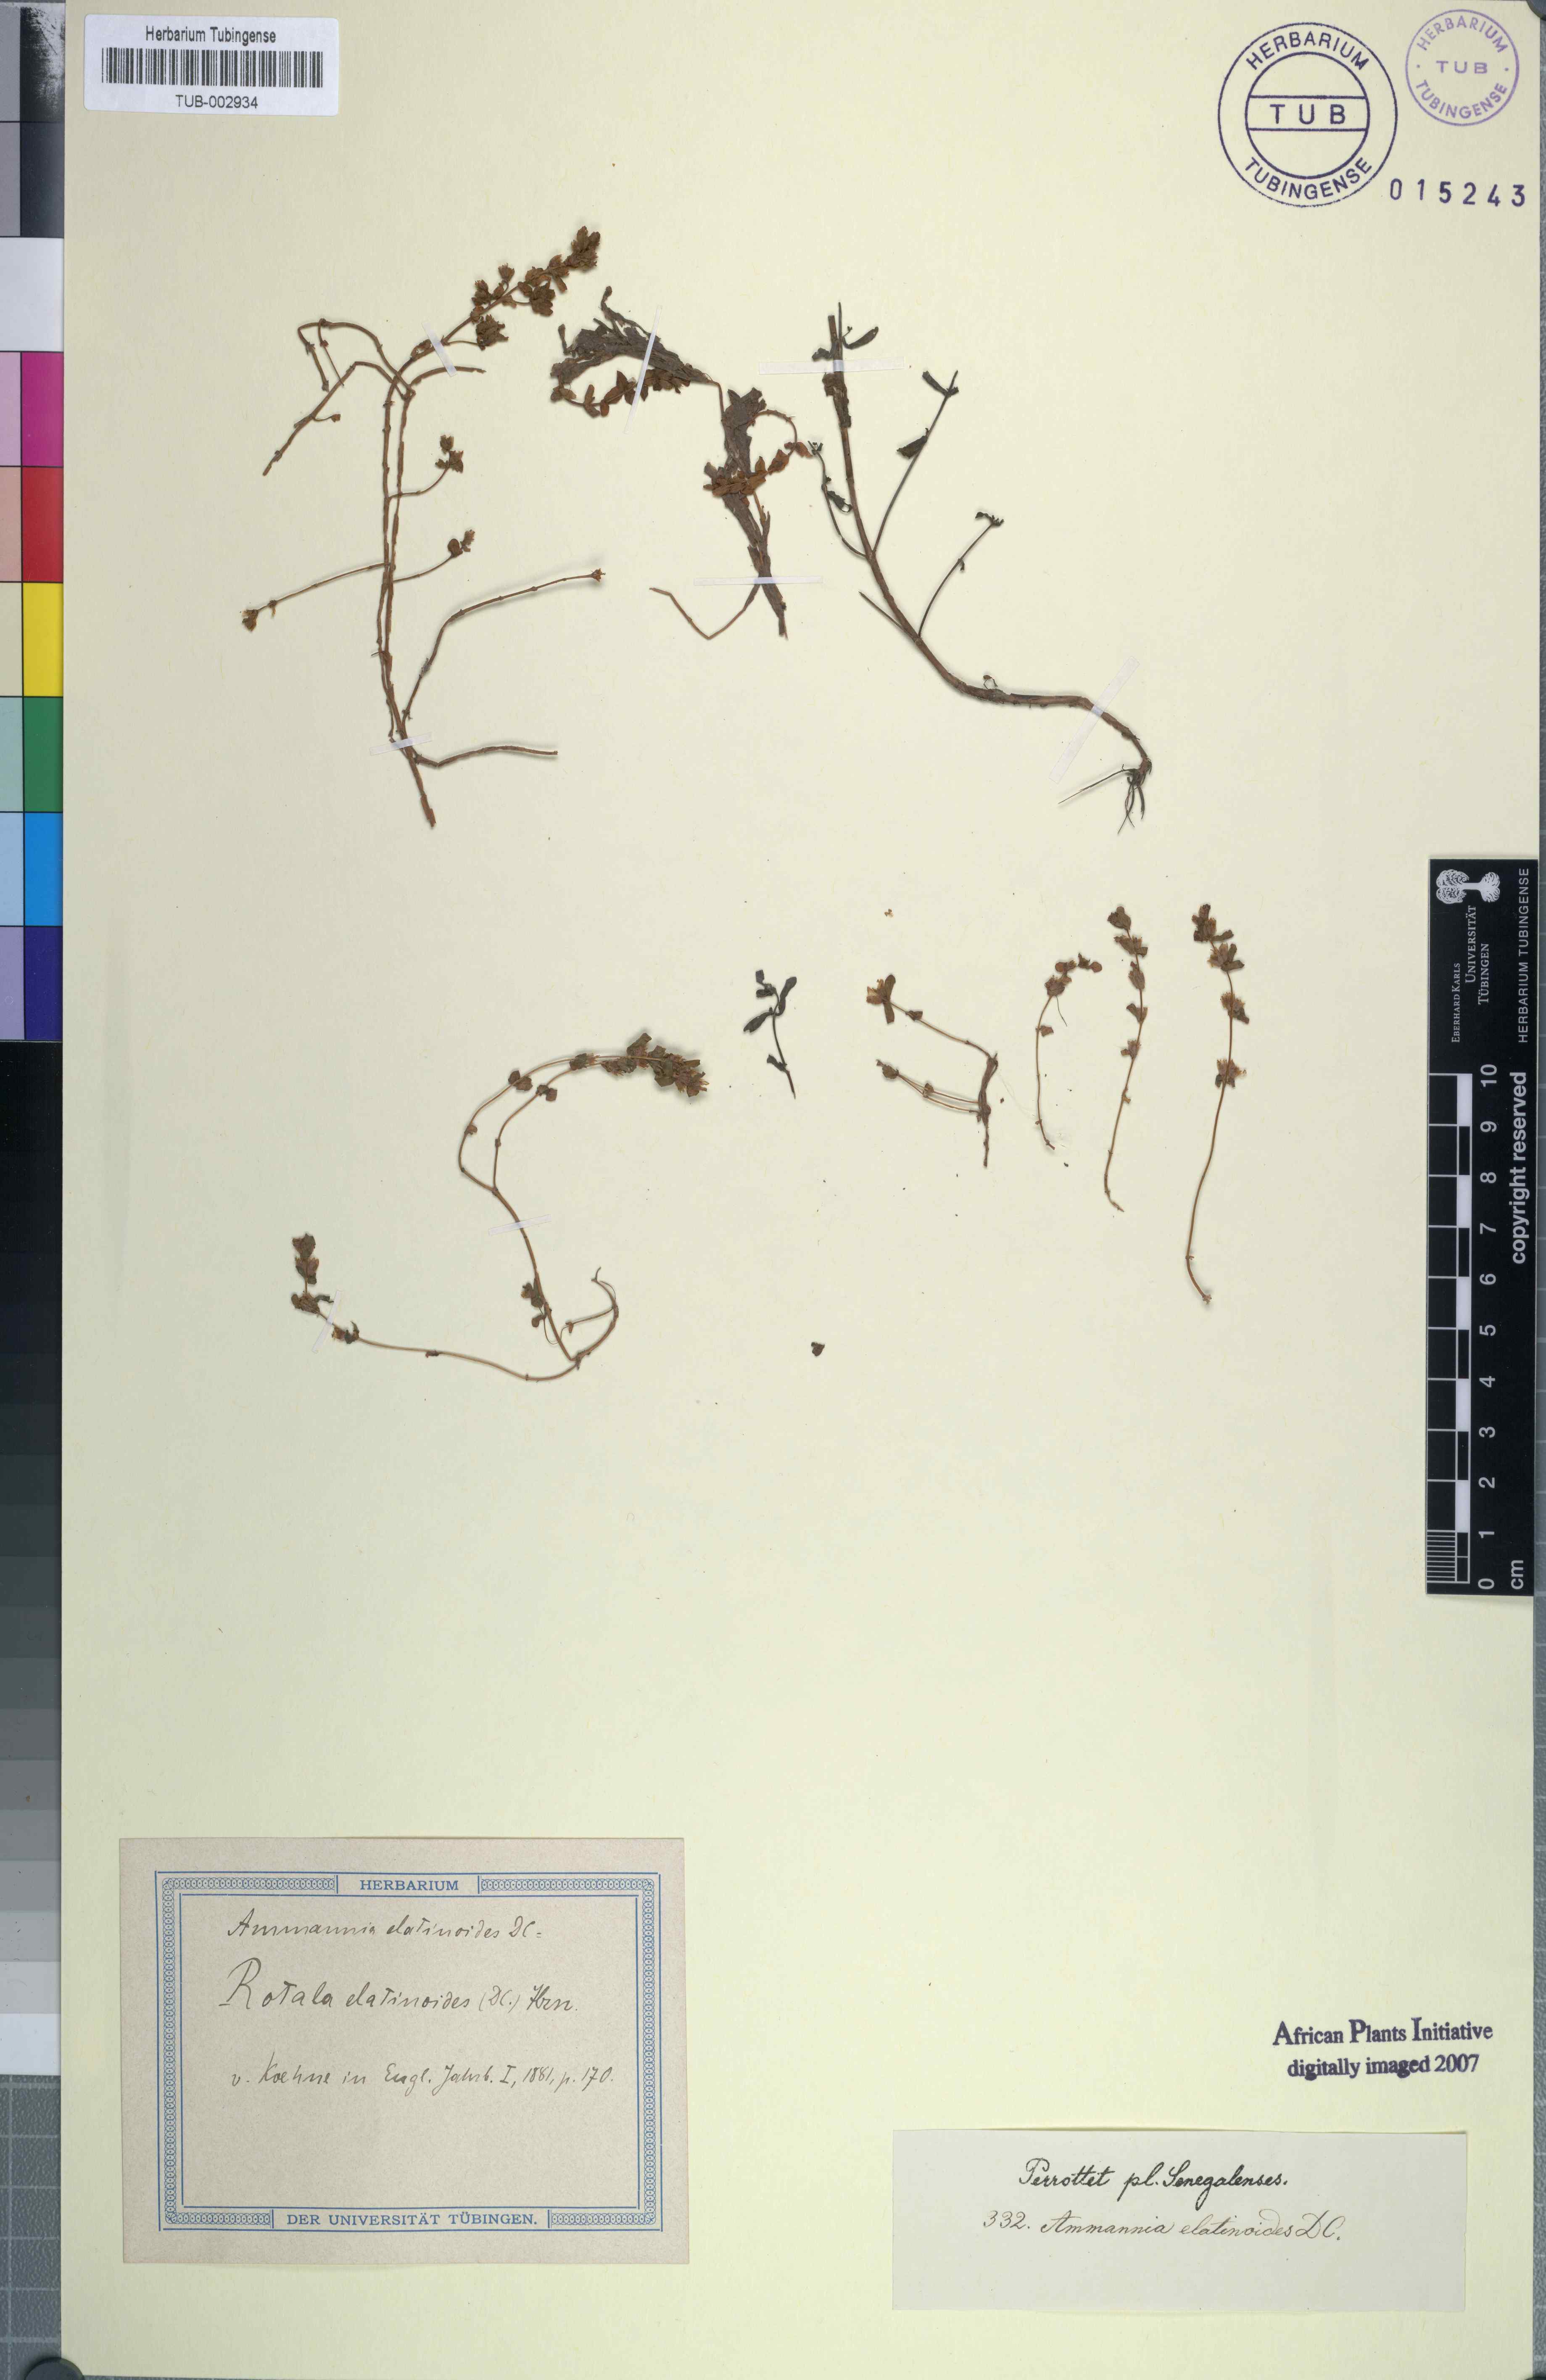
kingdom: Plantae
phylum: Tracheophyta
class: Magnoliopsida
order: Myrtales
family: Lythraceae
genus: Rotala
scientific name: Rotala elatinoides
